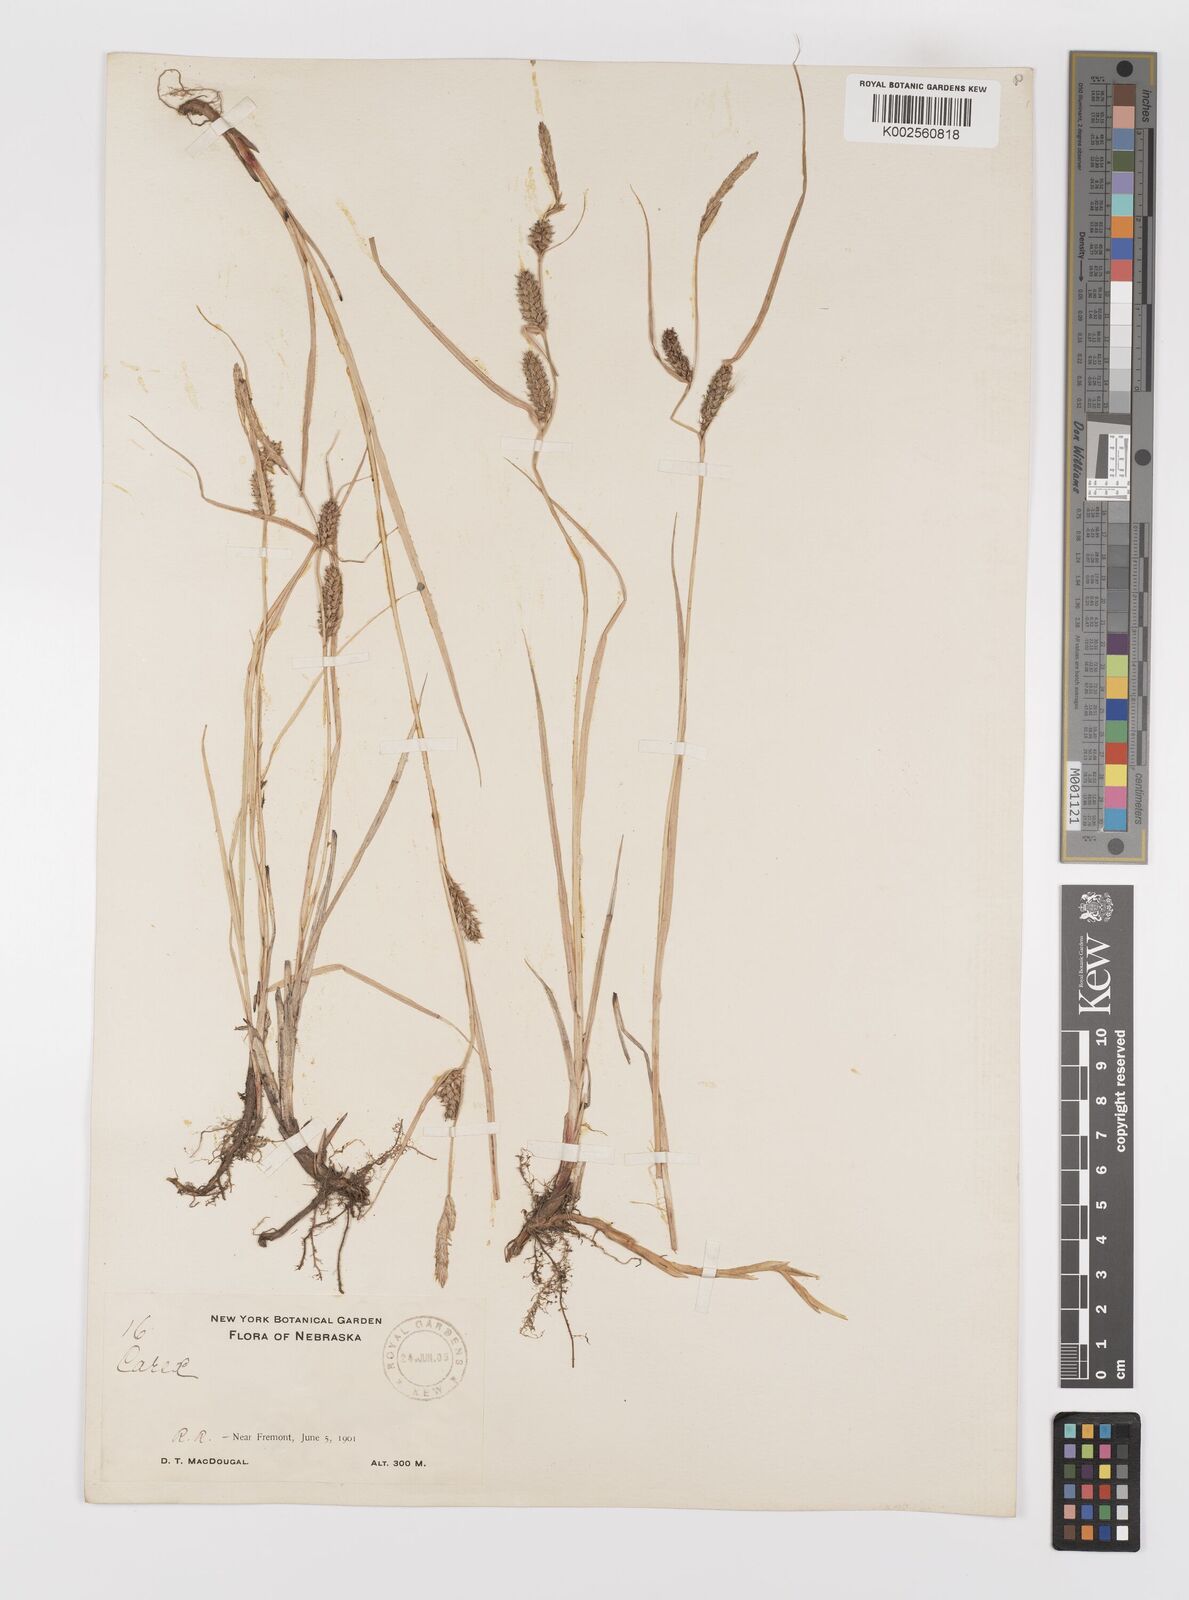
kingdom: Plantae
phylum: Tracheophyta
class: Liliopsida
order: Poales
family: Cyperaceae
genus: Carex
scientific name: Carex lasiocarpa
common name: Slender sedge
